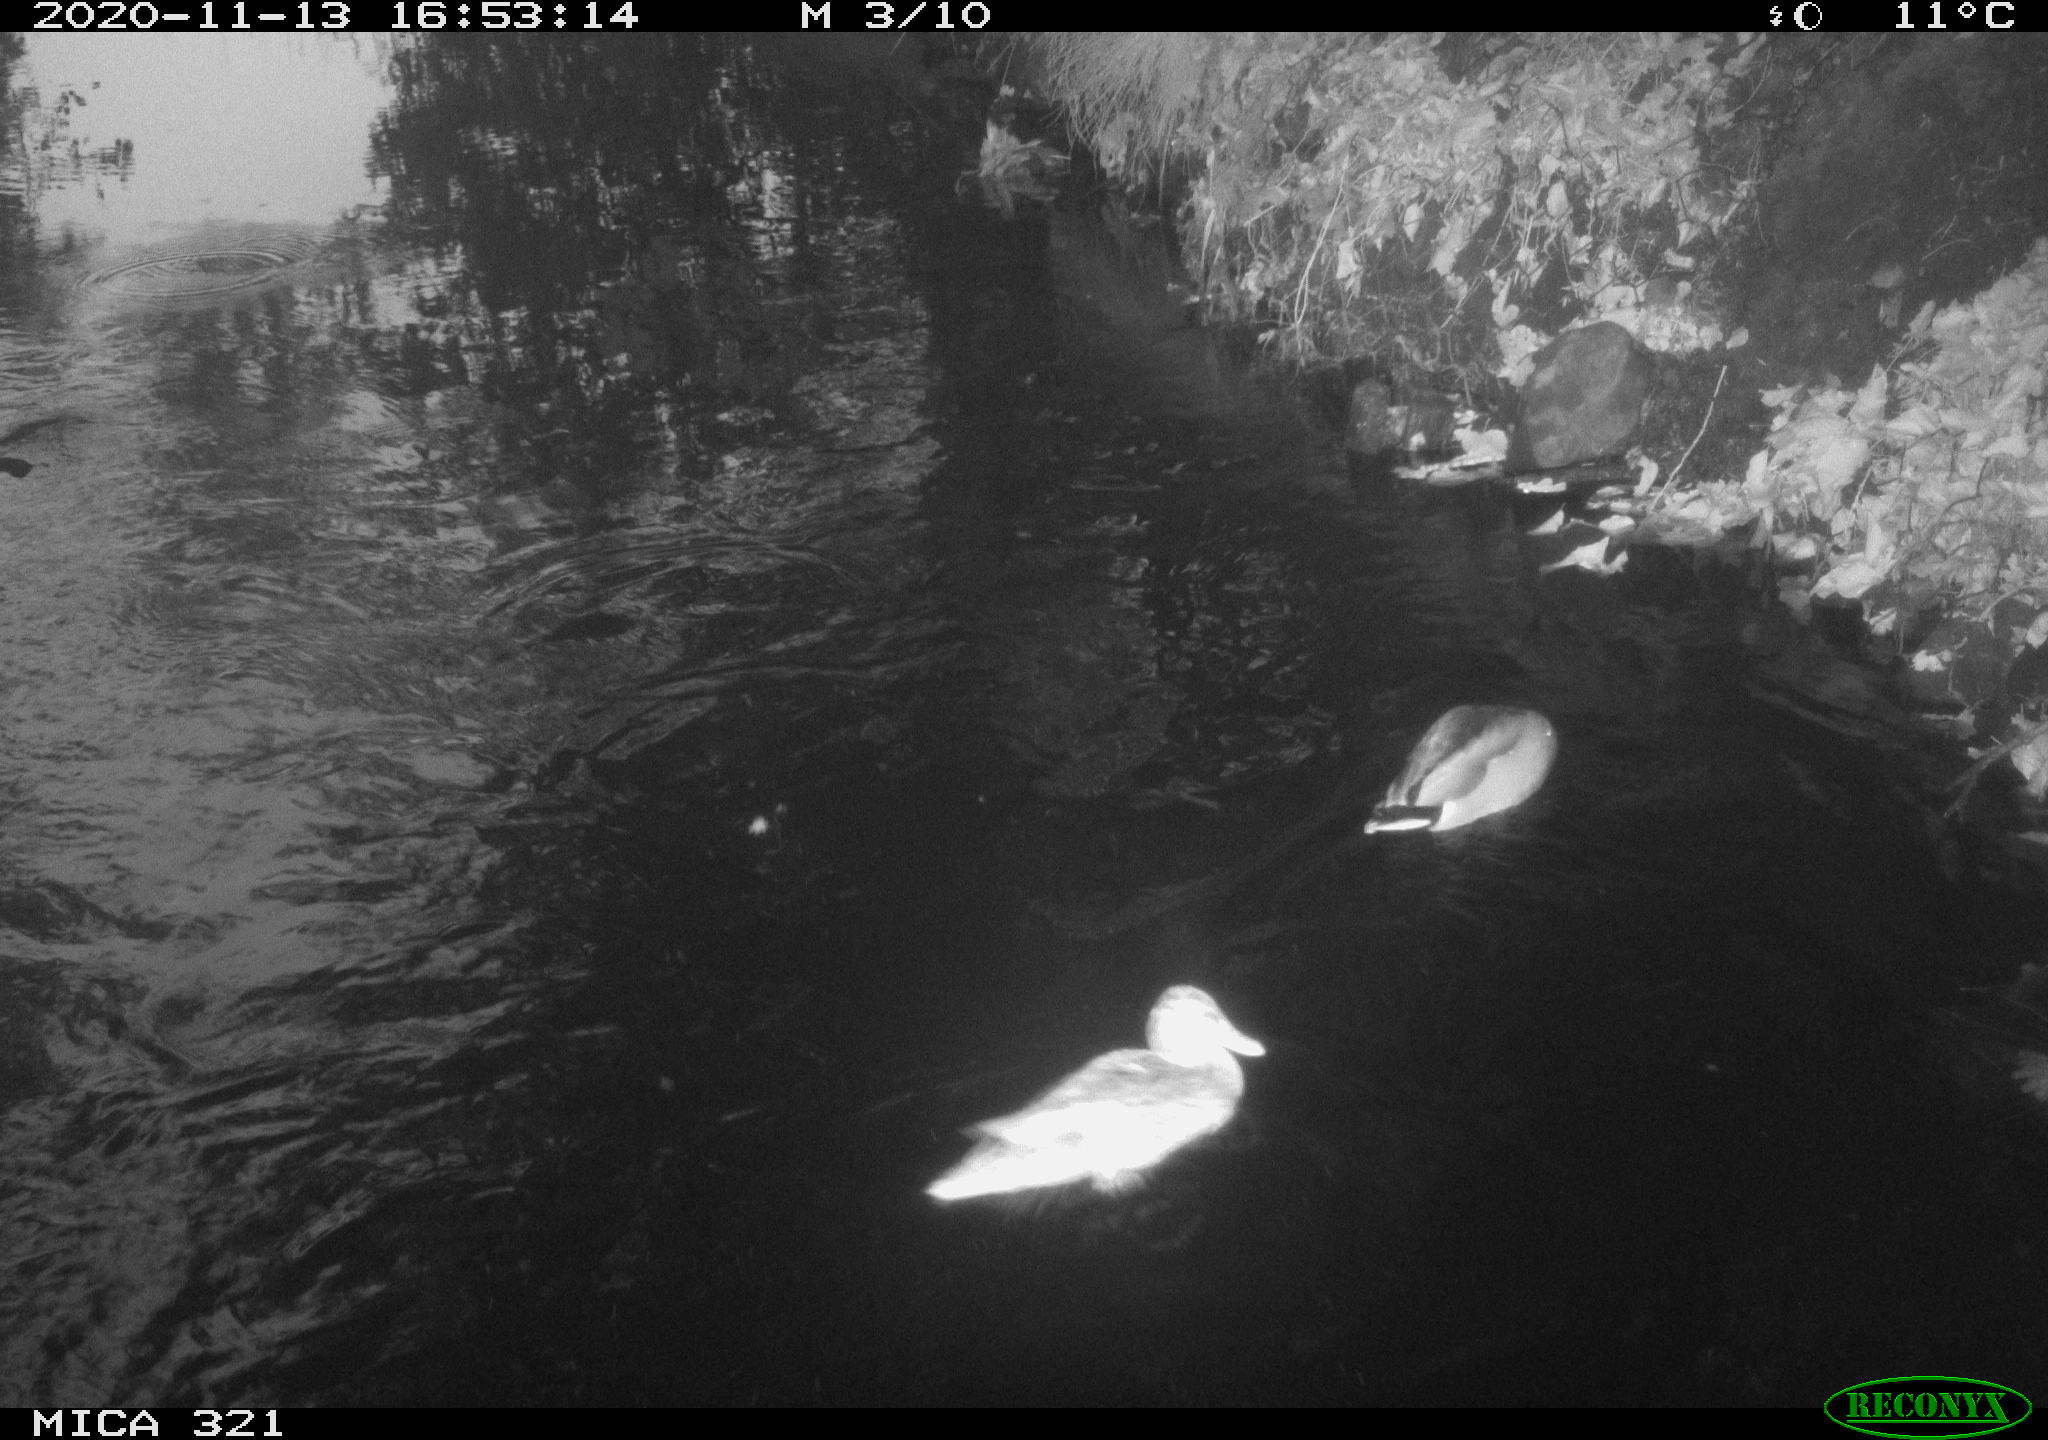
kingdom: Animalia
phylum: Chordata
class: Aves
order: Anseriformes
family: Anatidae
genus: Anas
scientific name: Anas platyrhynchos
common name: Mallard
